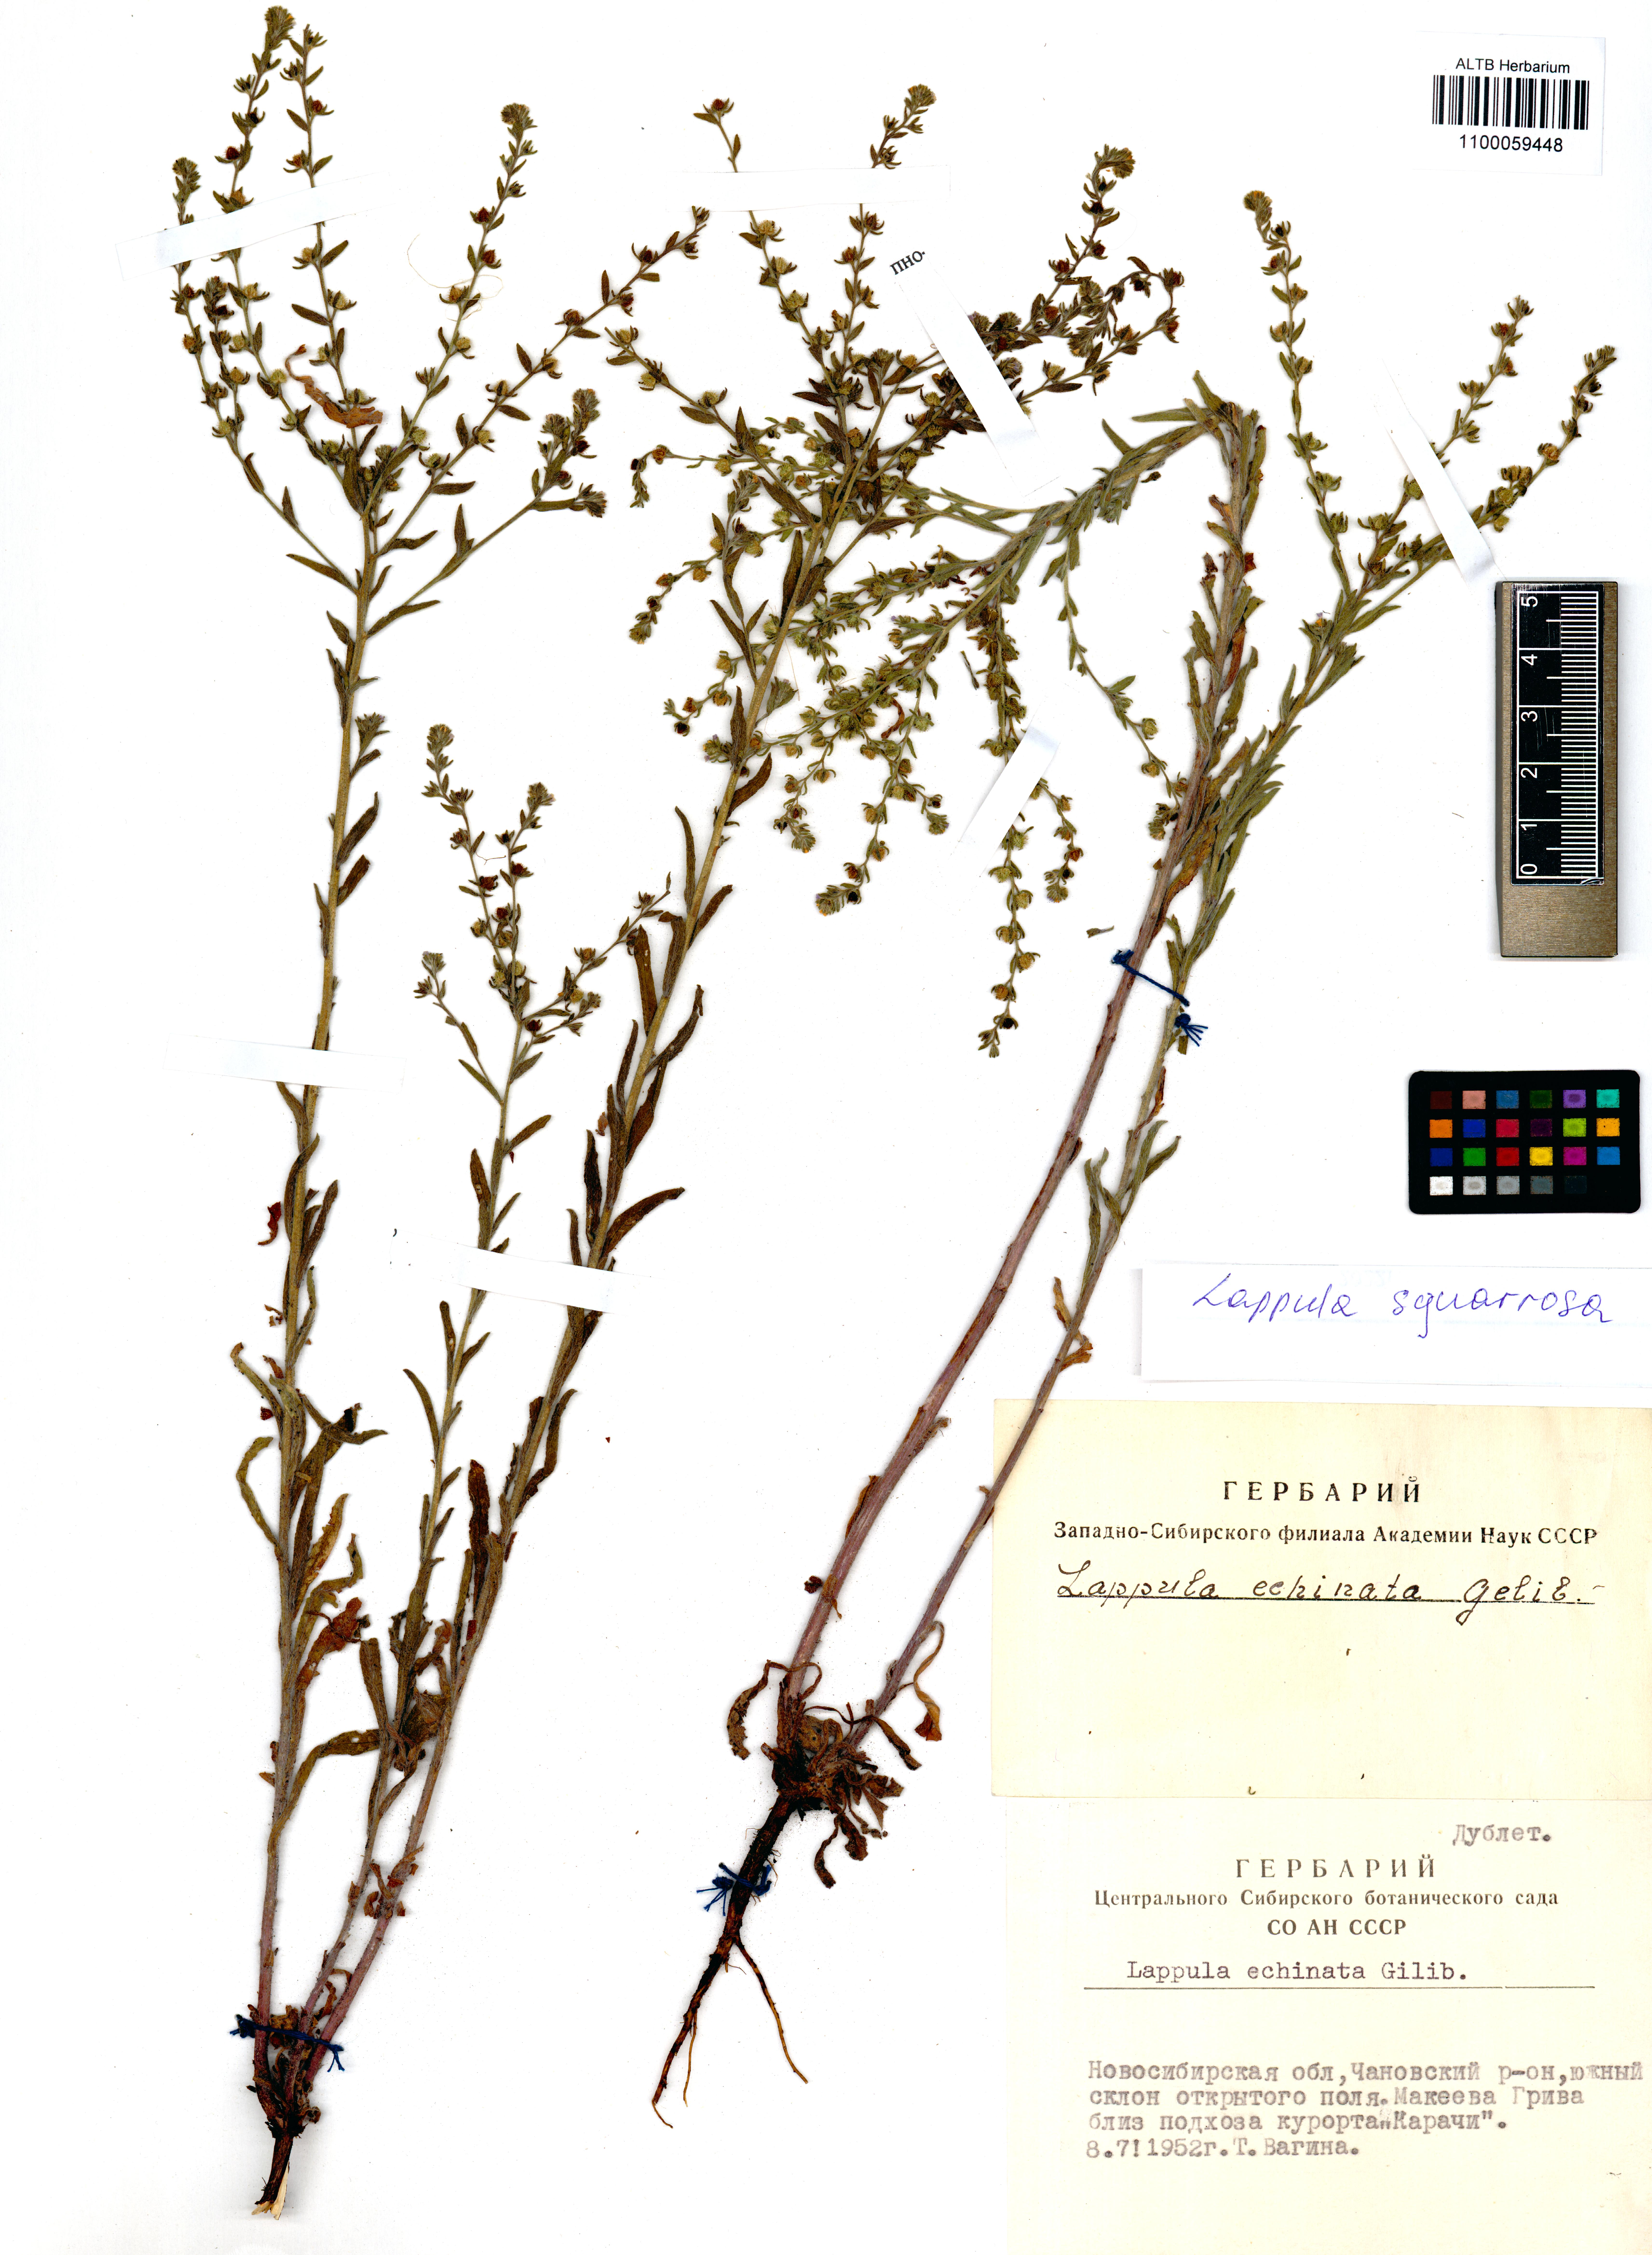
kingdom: Plantae
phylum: Tracheophyta
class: Magnoliopsida
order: Boraginales
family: Boraginaceae
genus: Lappula
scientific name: Lappula squarrosa
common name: European stickseed
